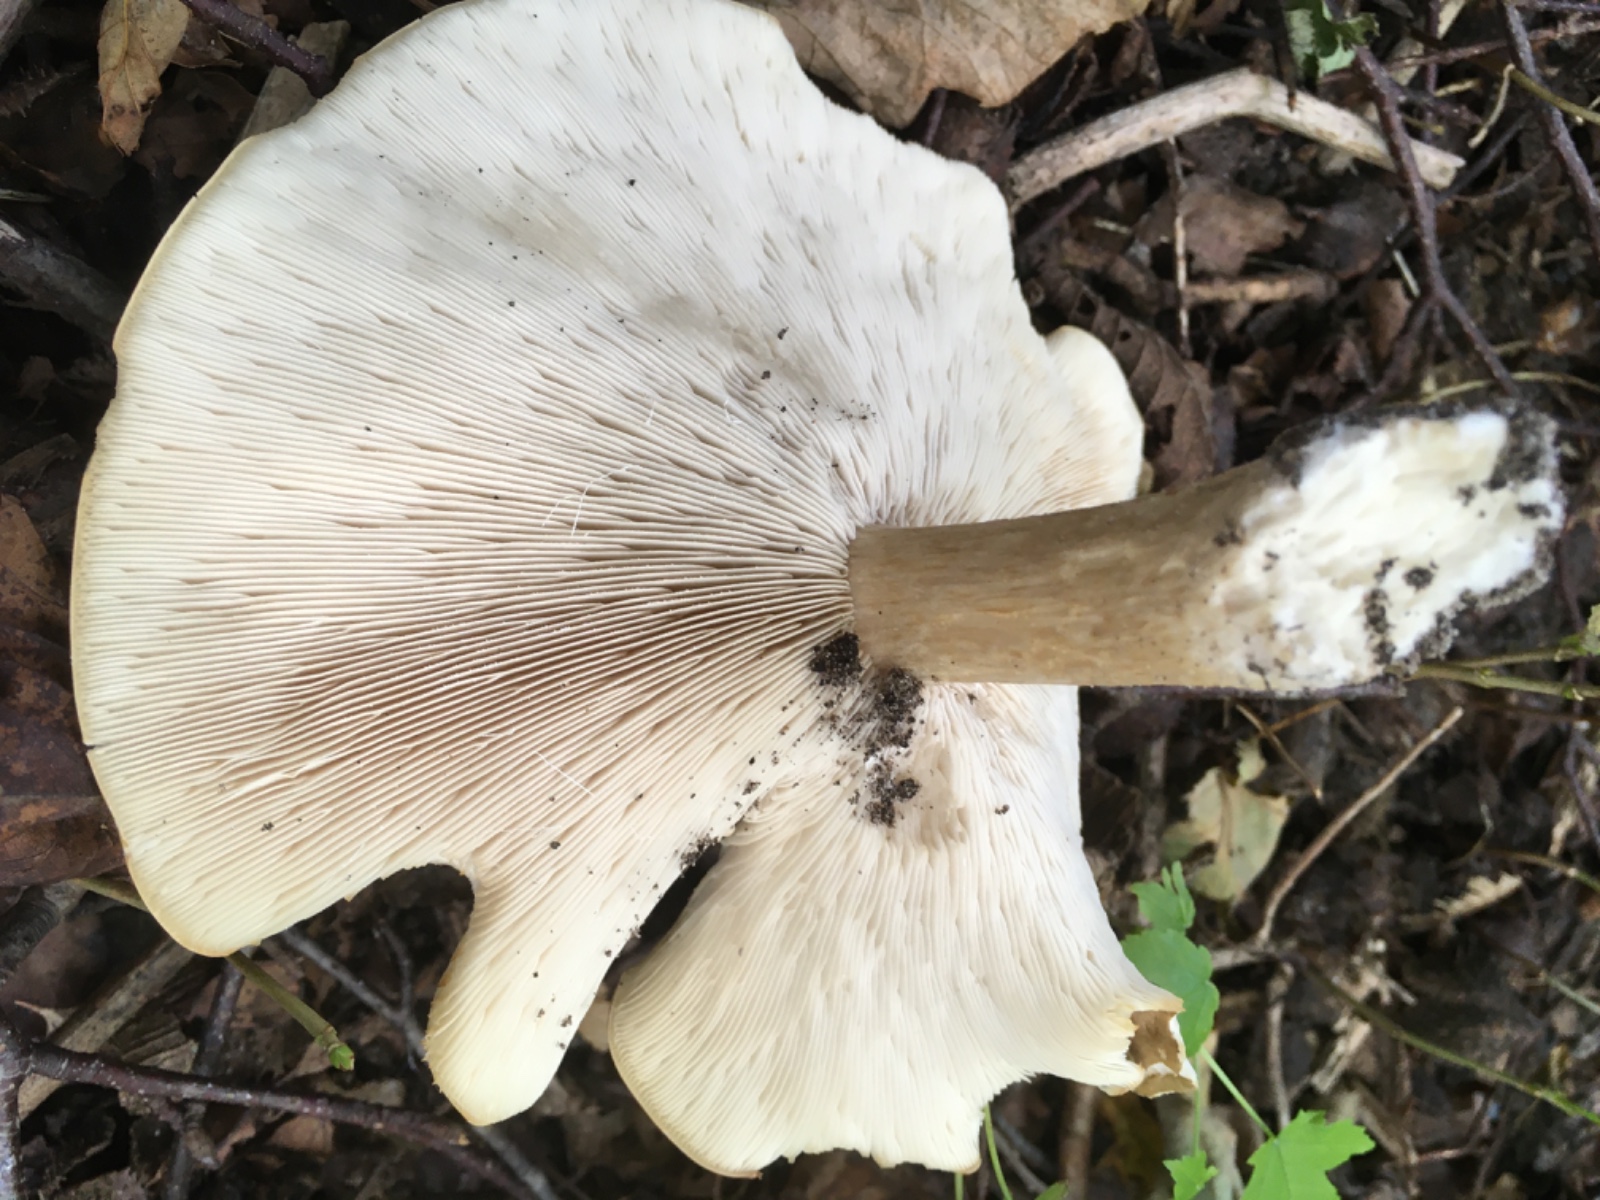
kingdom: Fungi
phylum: Basidiomycota
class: Agaricomycetes
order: Agaricales
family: Tricholomataceae
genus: Melanoleuca
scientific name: Melanoleuca grammopodia
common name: stribestokket munkehat
